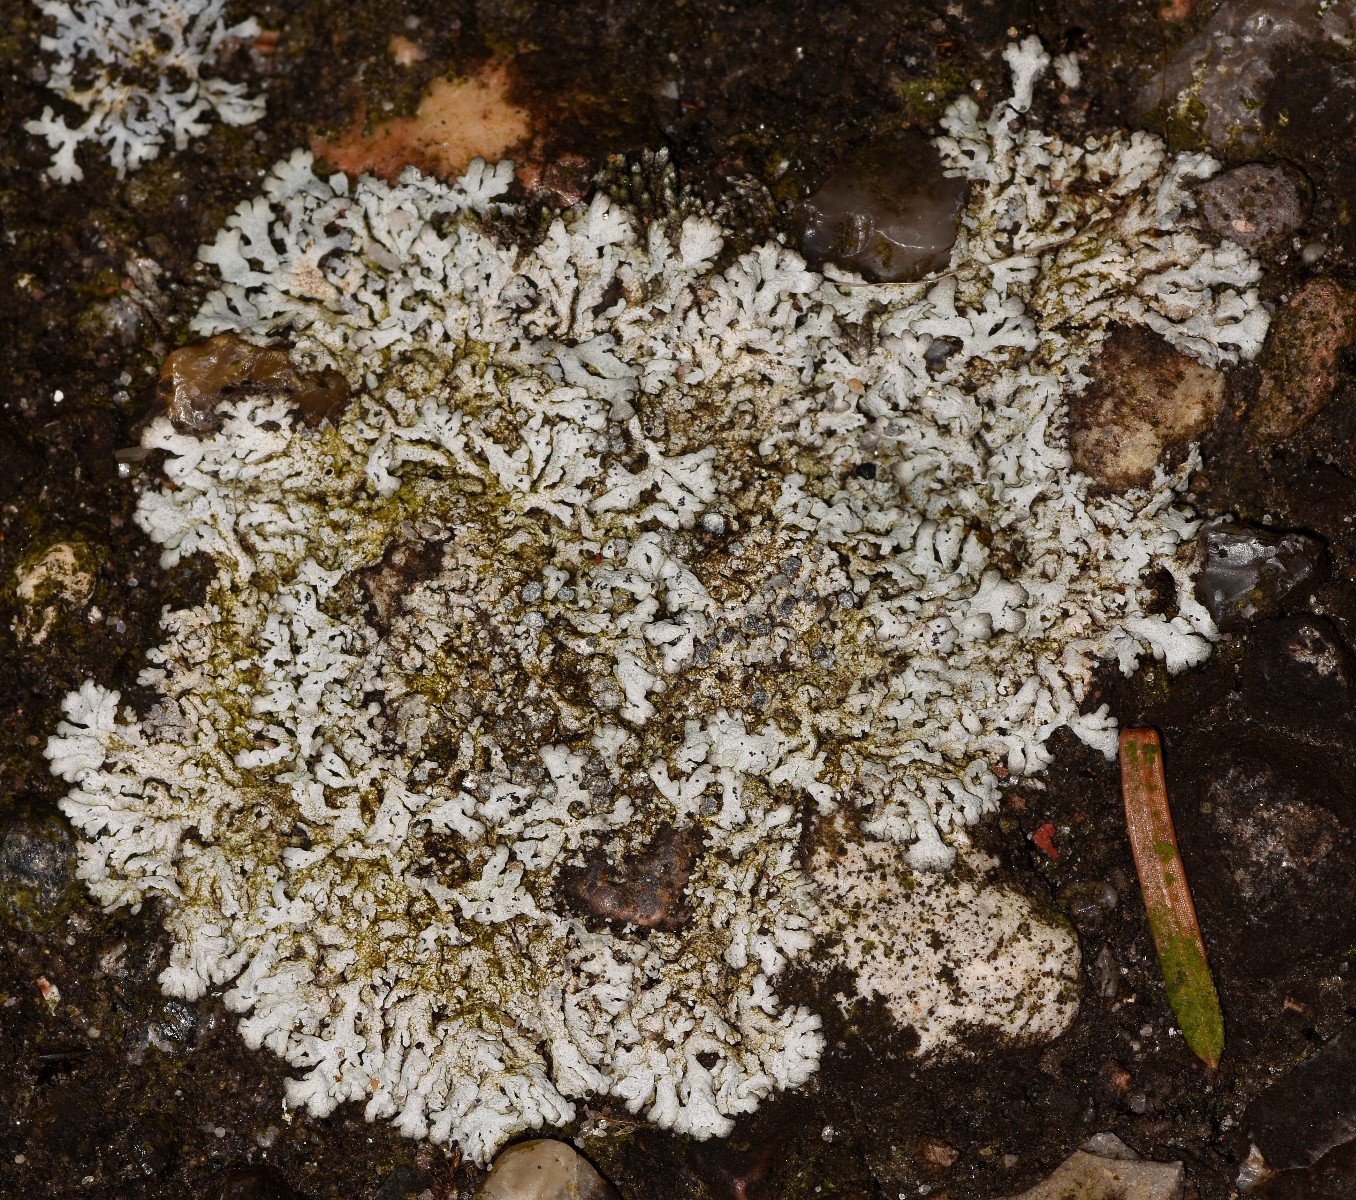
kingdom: Fungi
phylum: Ascomycota
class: Lecanoromycetes
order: Caliciales
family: Physciaceae
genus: Physcia
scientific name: Physcia caesia
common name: blågrå rosetlav
